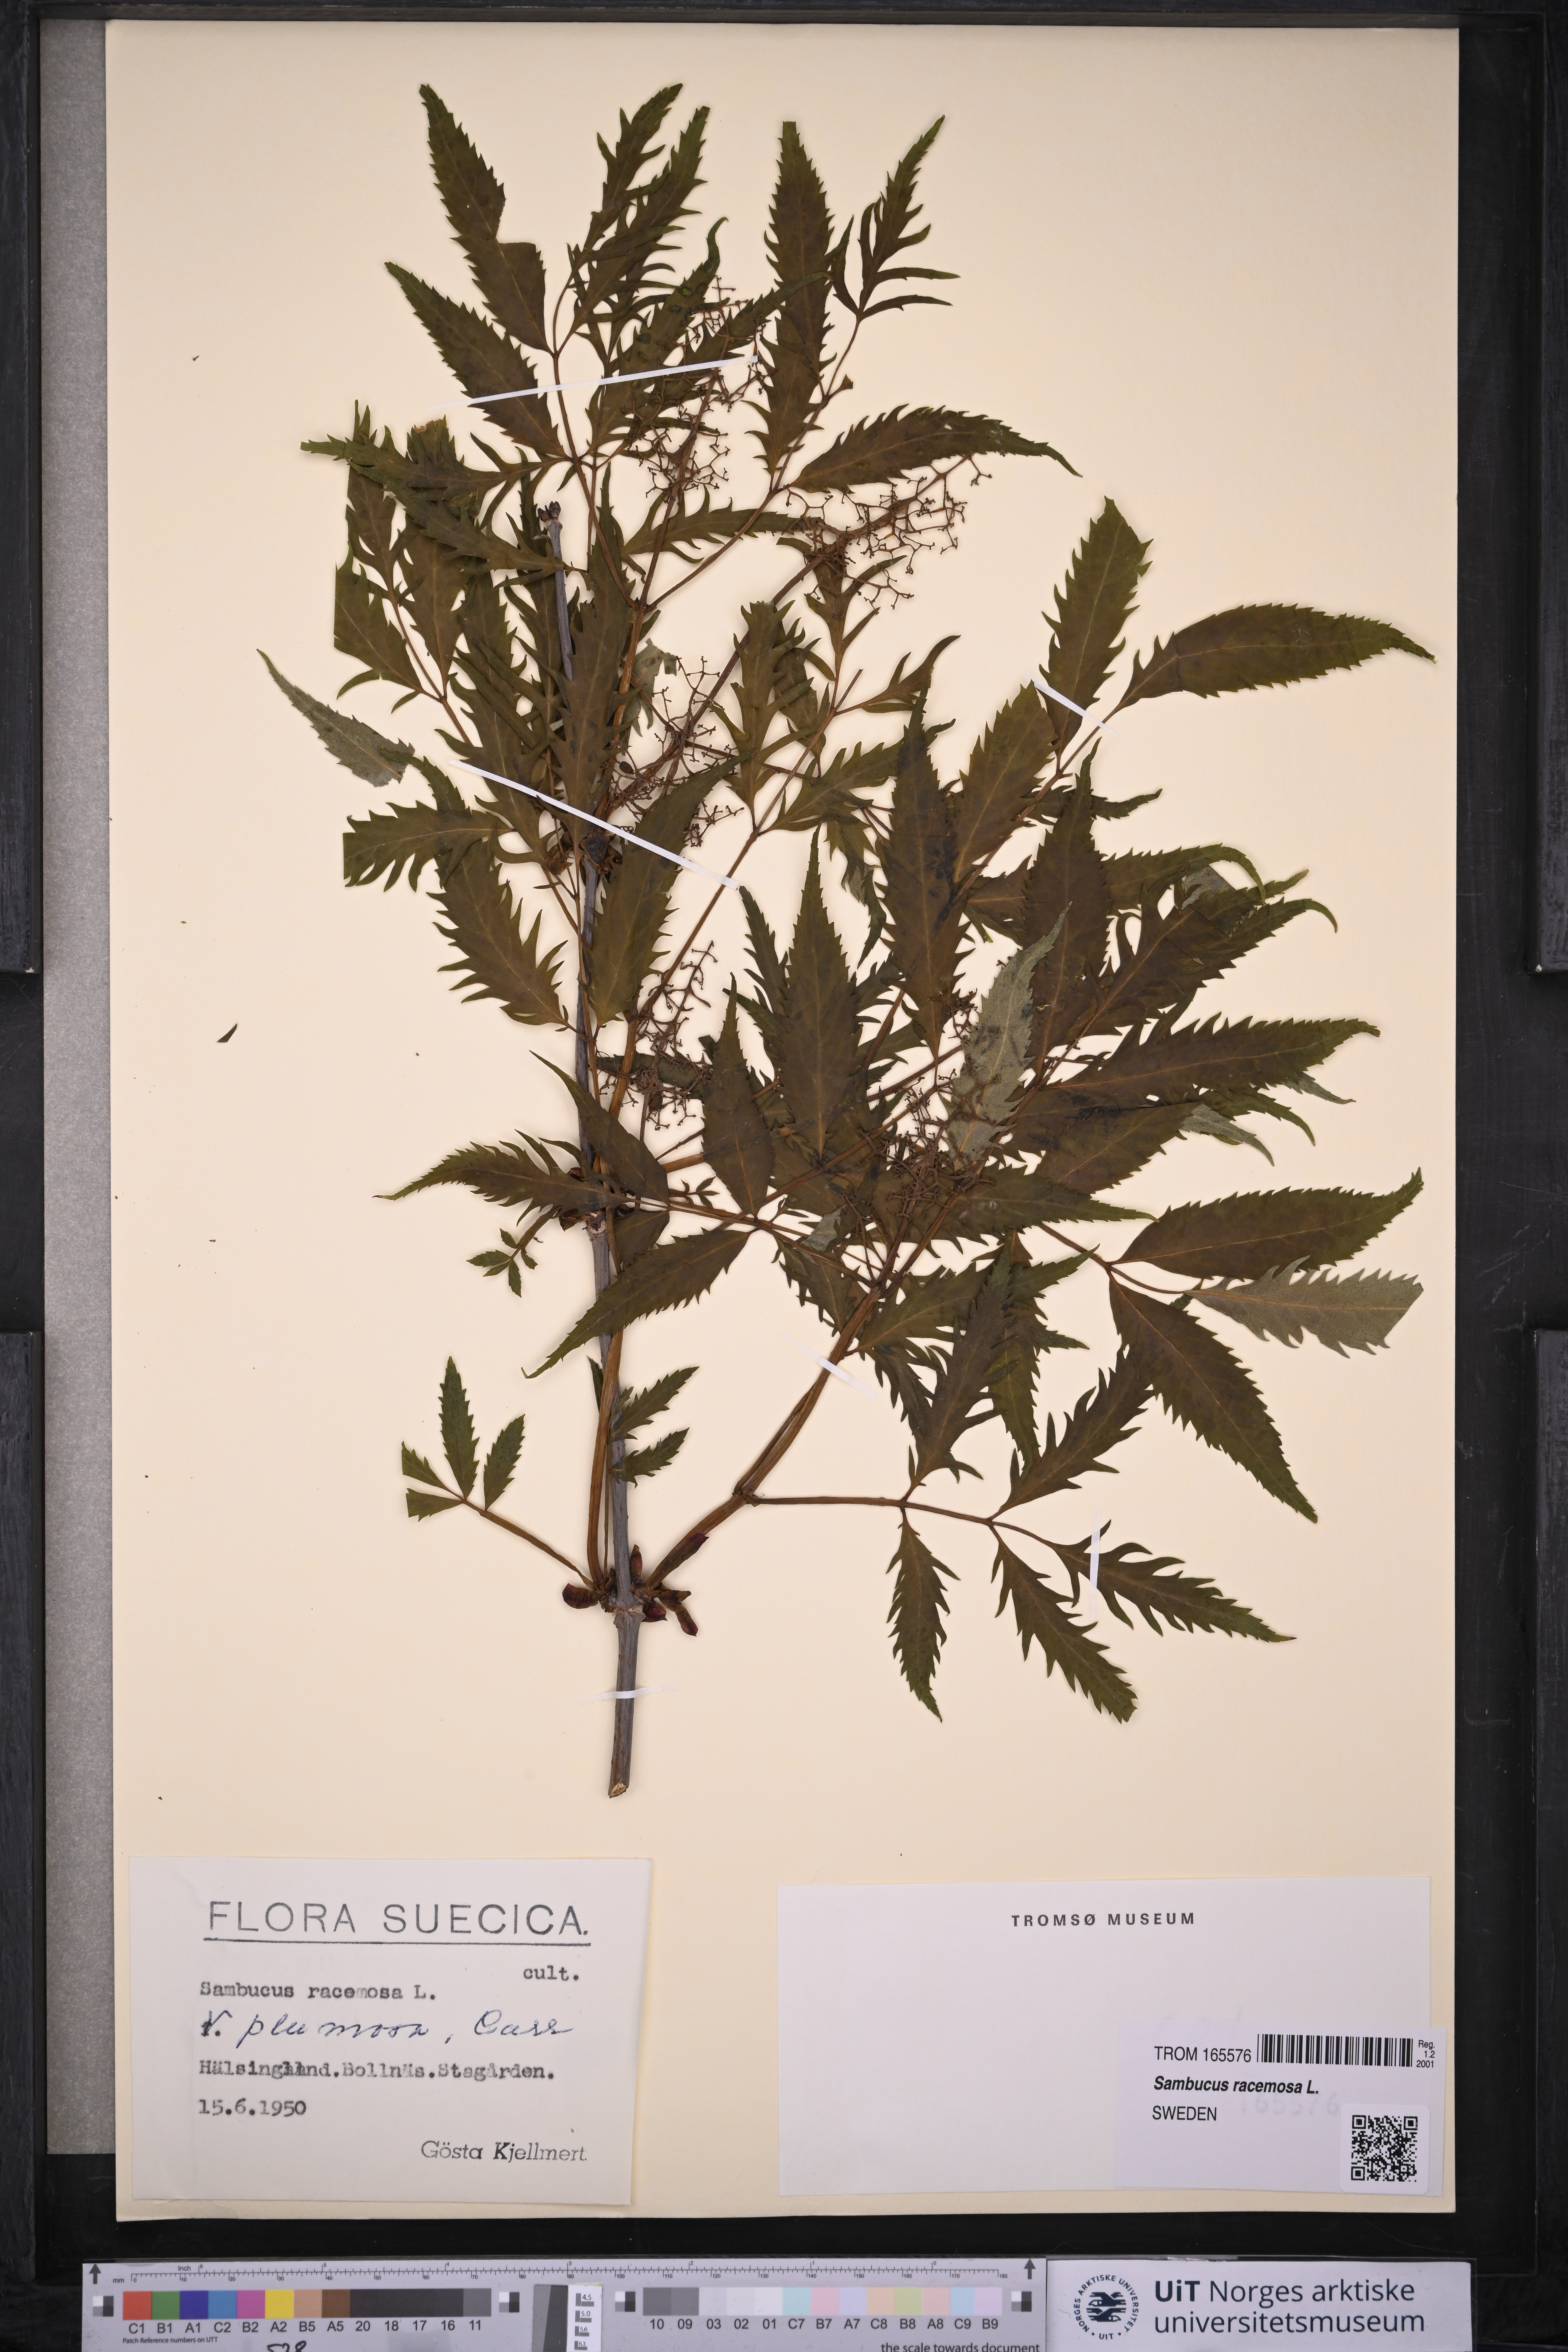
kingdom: Plantae
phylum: Tracheophyta
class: Magnoliopsida
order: Dipsacales
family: Viburnaceae
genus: Sambucus
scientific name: Sambucus racemosa
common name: Red-berried elder
